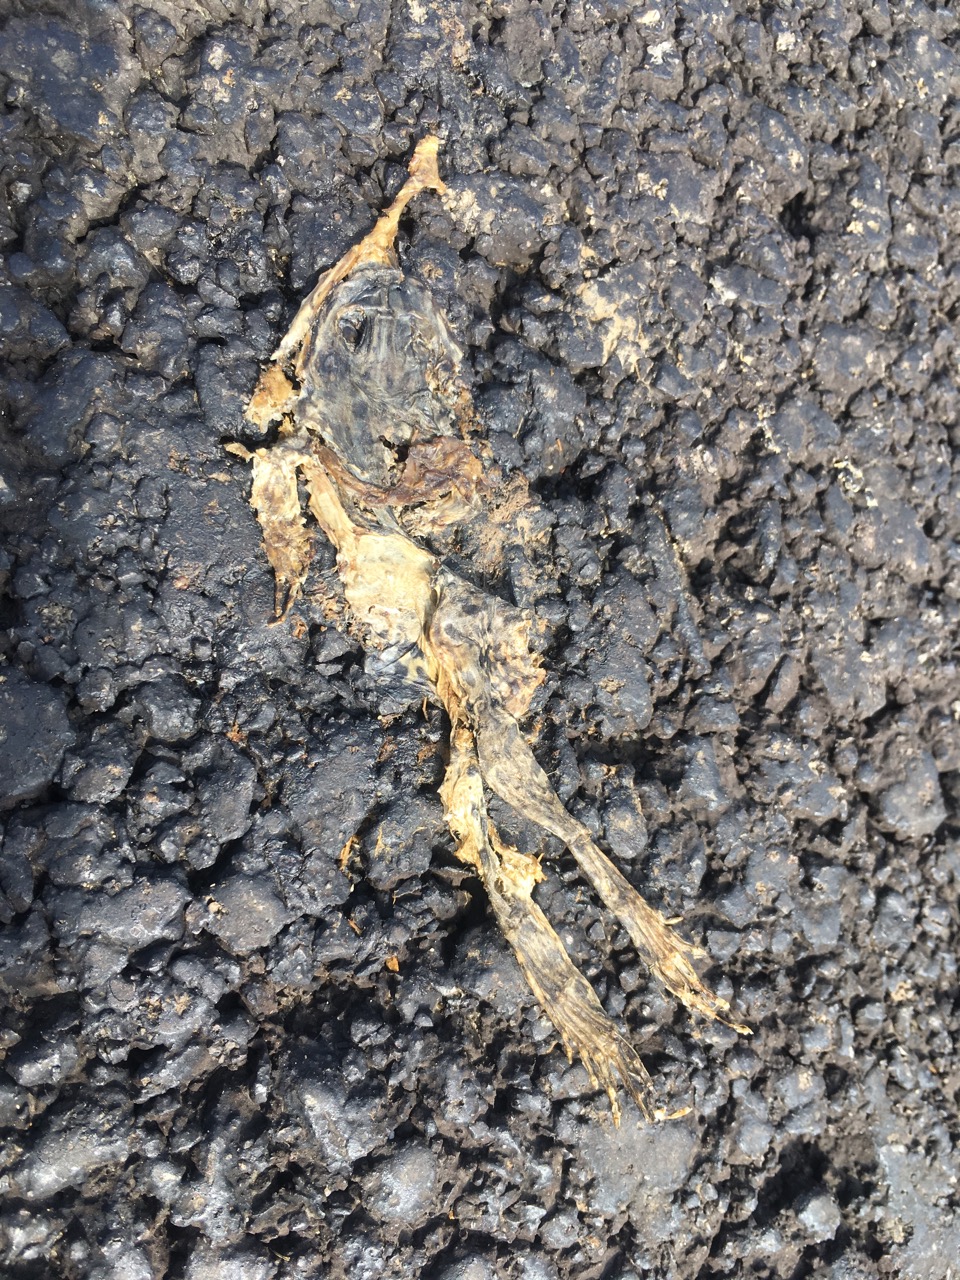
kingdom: Animalia
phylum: Chordata
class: Amphibia
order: Anura
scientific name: Anura
